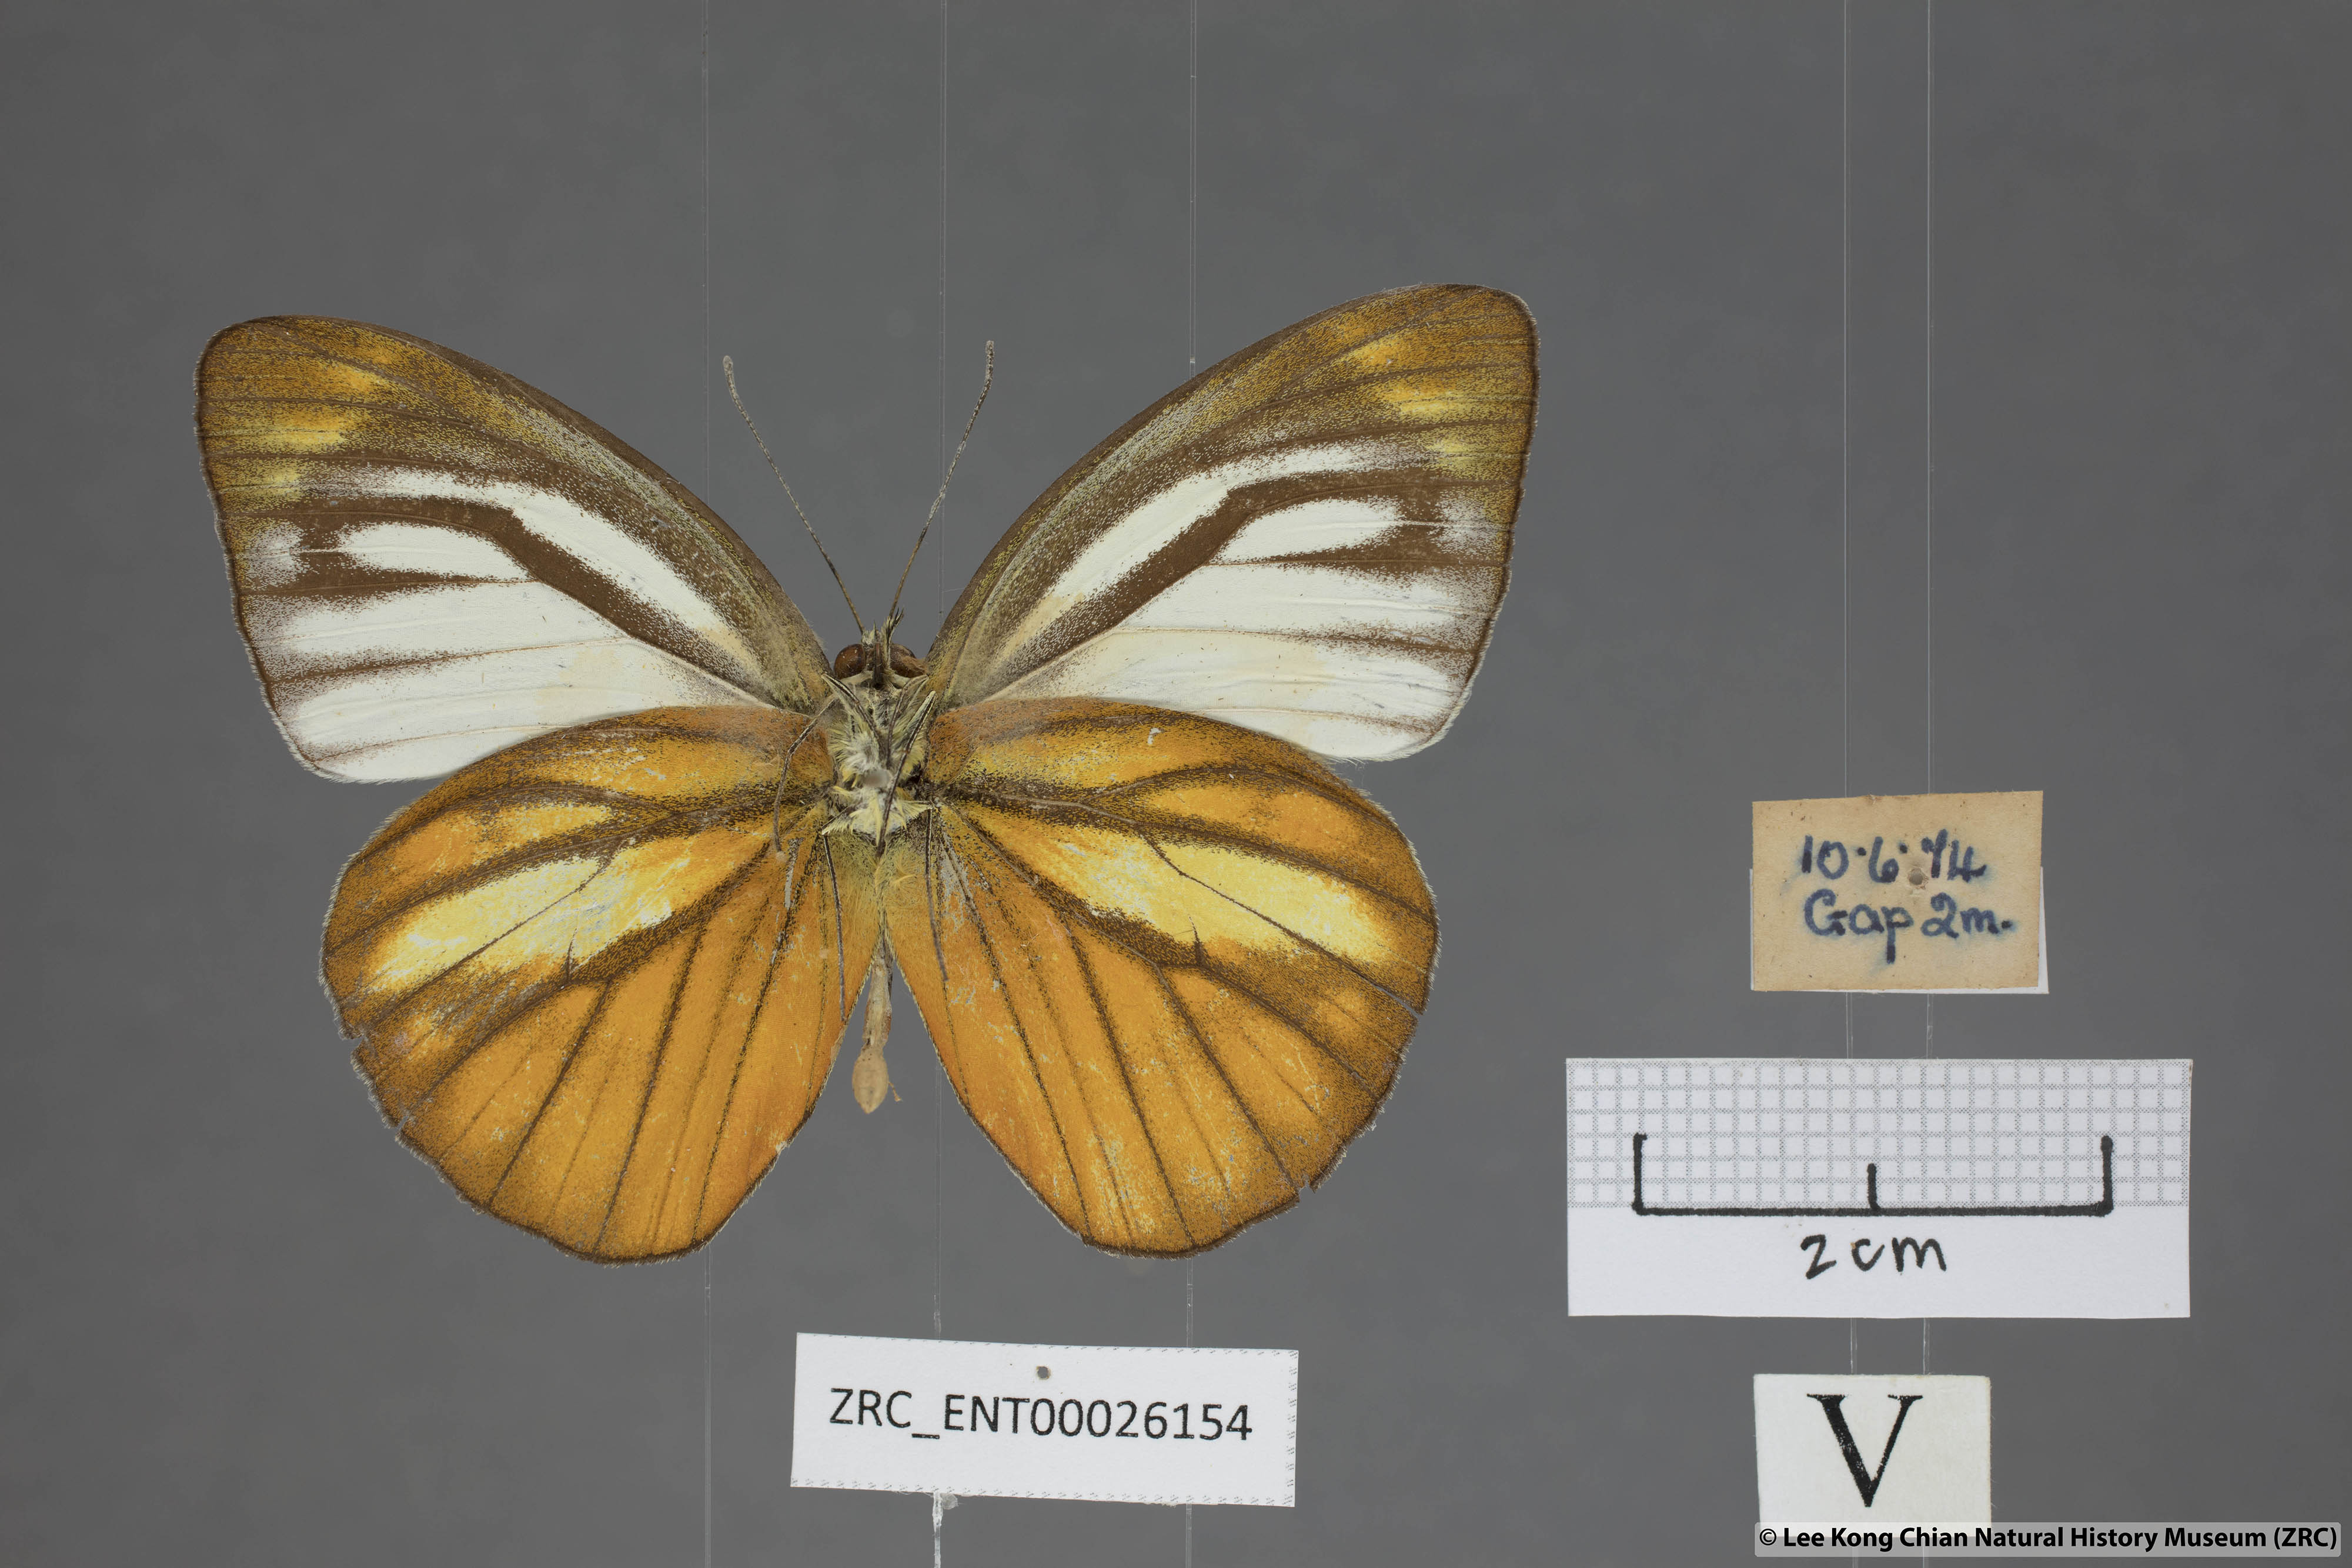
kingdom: Animalia
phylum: Arthropoda
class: Insecta
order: Lepidoptera
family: Pieridae
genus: Cepora
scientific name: Cepora nadina
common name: Lesser gull
